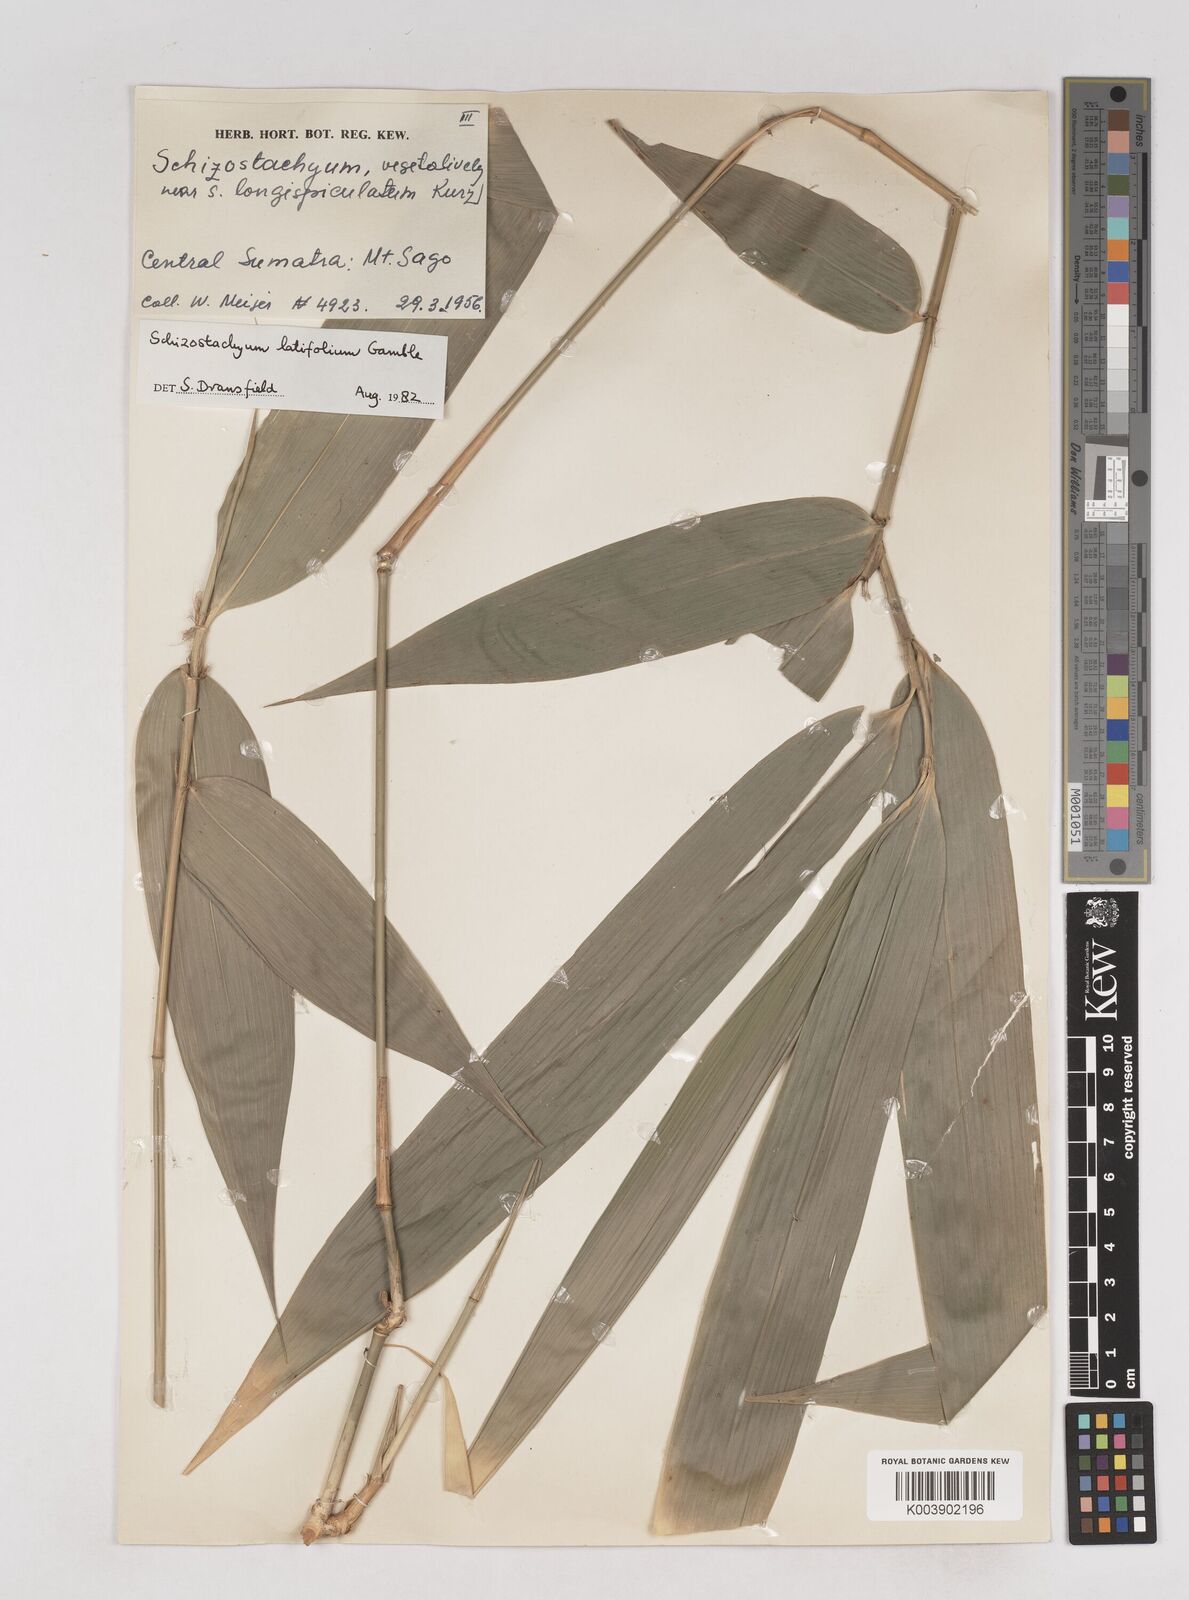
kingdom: Plantae
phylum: Tracheophyta
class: Liliopsida
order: Poales
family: Poaceae
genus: Schizostachyum
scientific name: Schizostachyum latifolium
